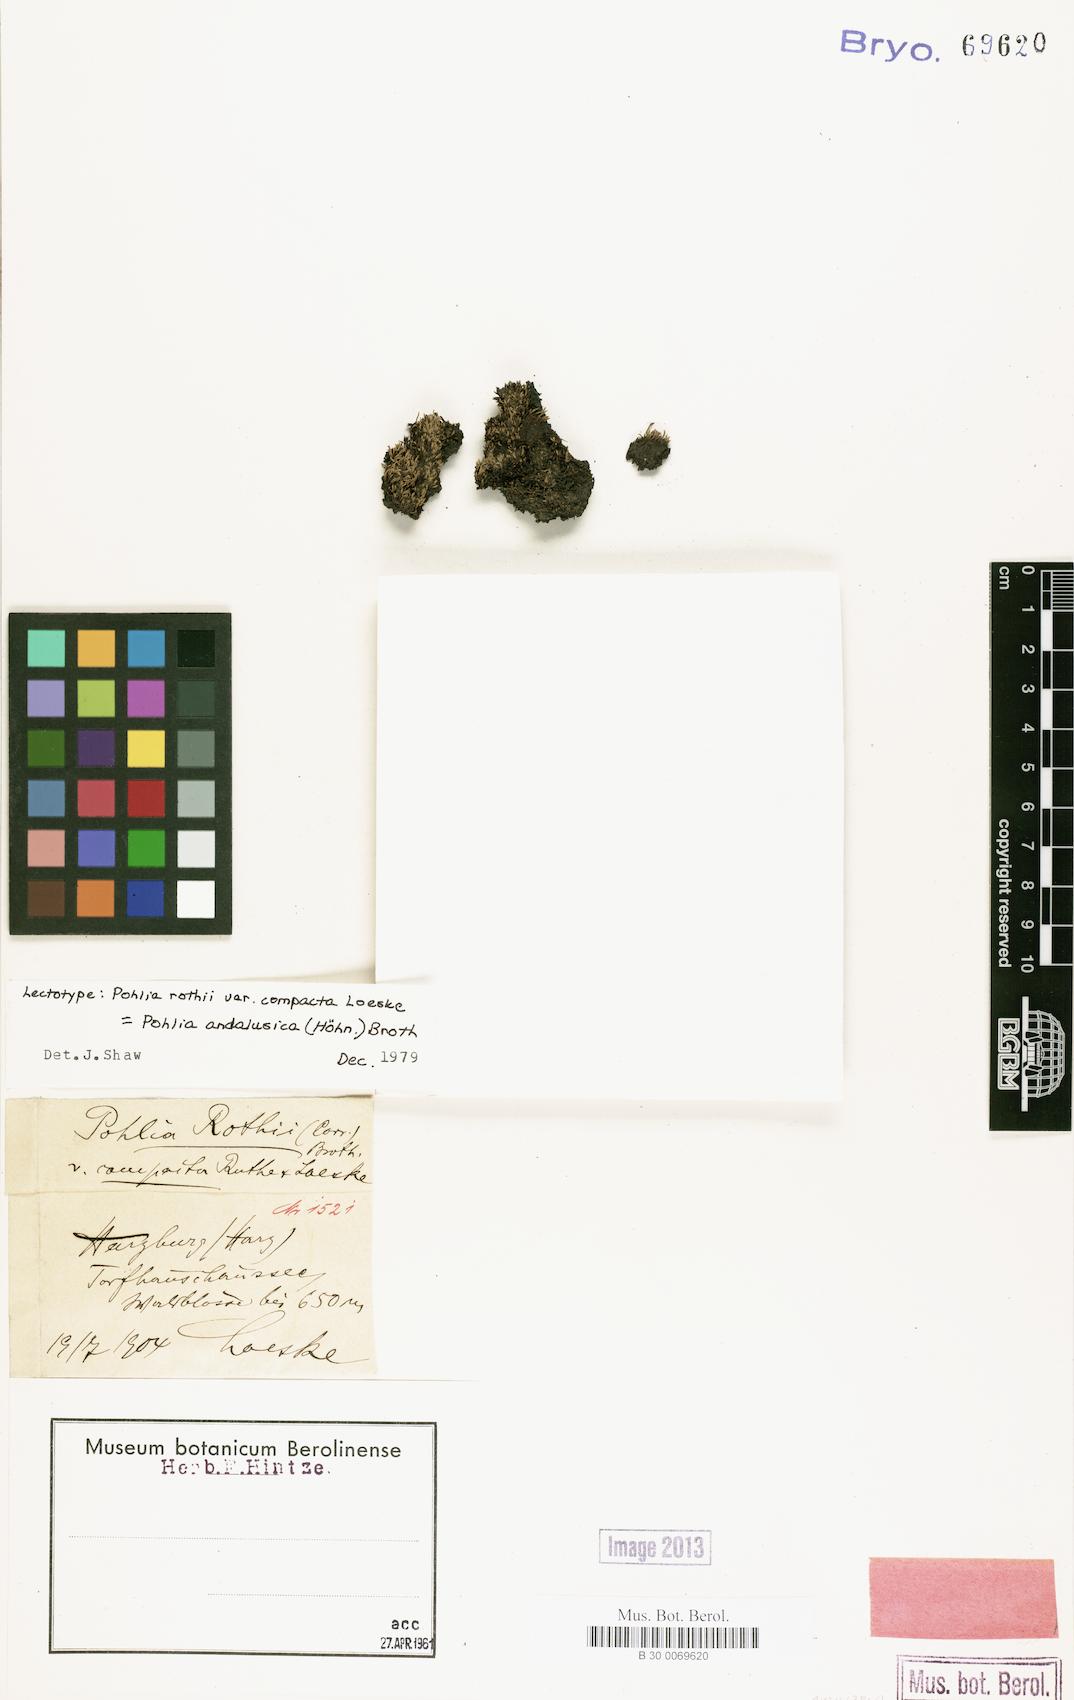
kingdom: Plantae
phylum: Bryophyta
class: Bryopsida
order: Bryales
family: Mniaceae
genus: Pohlia
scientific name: Pohlia andalusica
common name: Andalusian nodding moss
